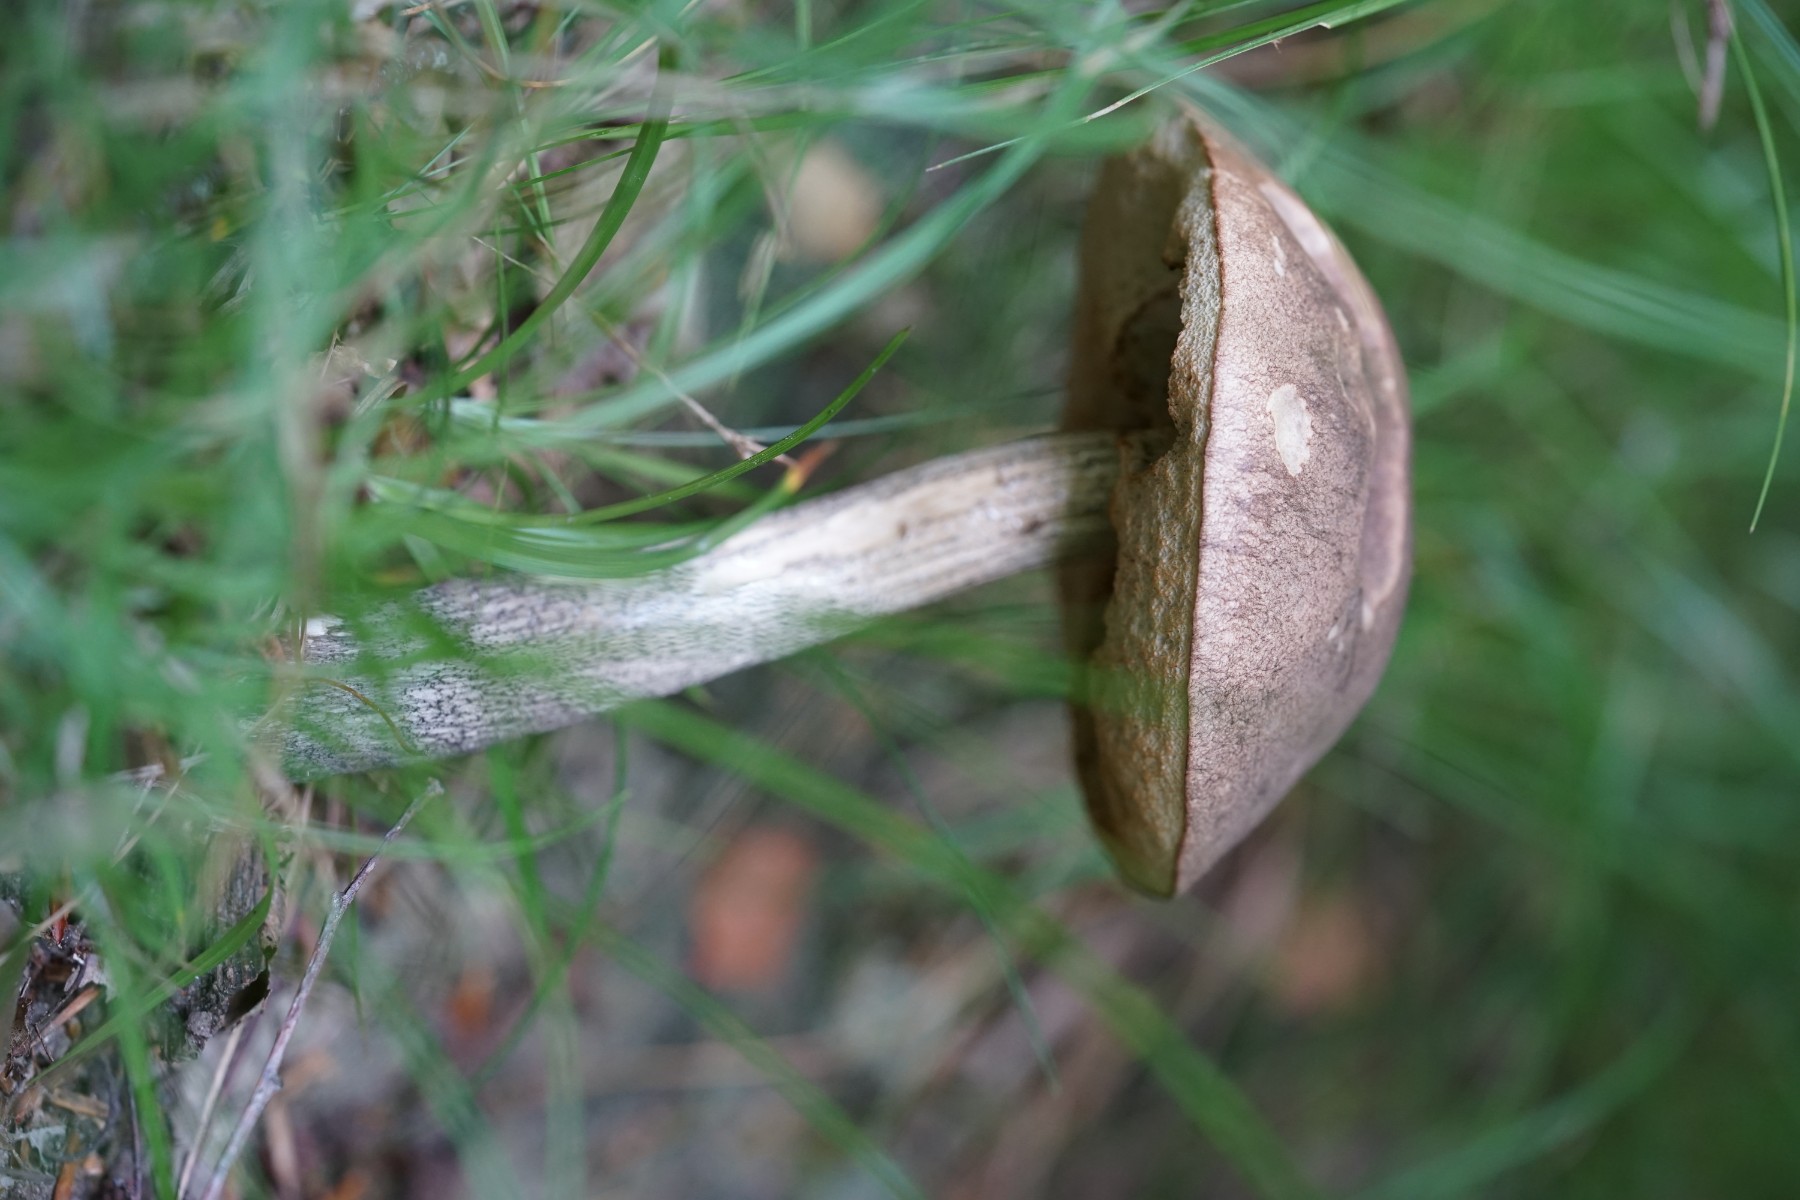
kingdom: Fungi
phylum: Basidiomycota
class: Agaricomycetes
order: Boletales
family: Boletaceae
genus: Leccinum
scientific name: Leccinum scabrum
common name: brun skælrørhat
